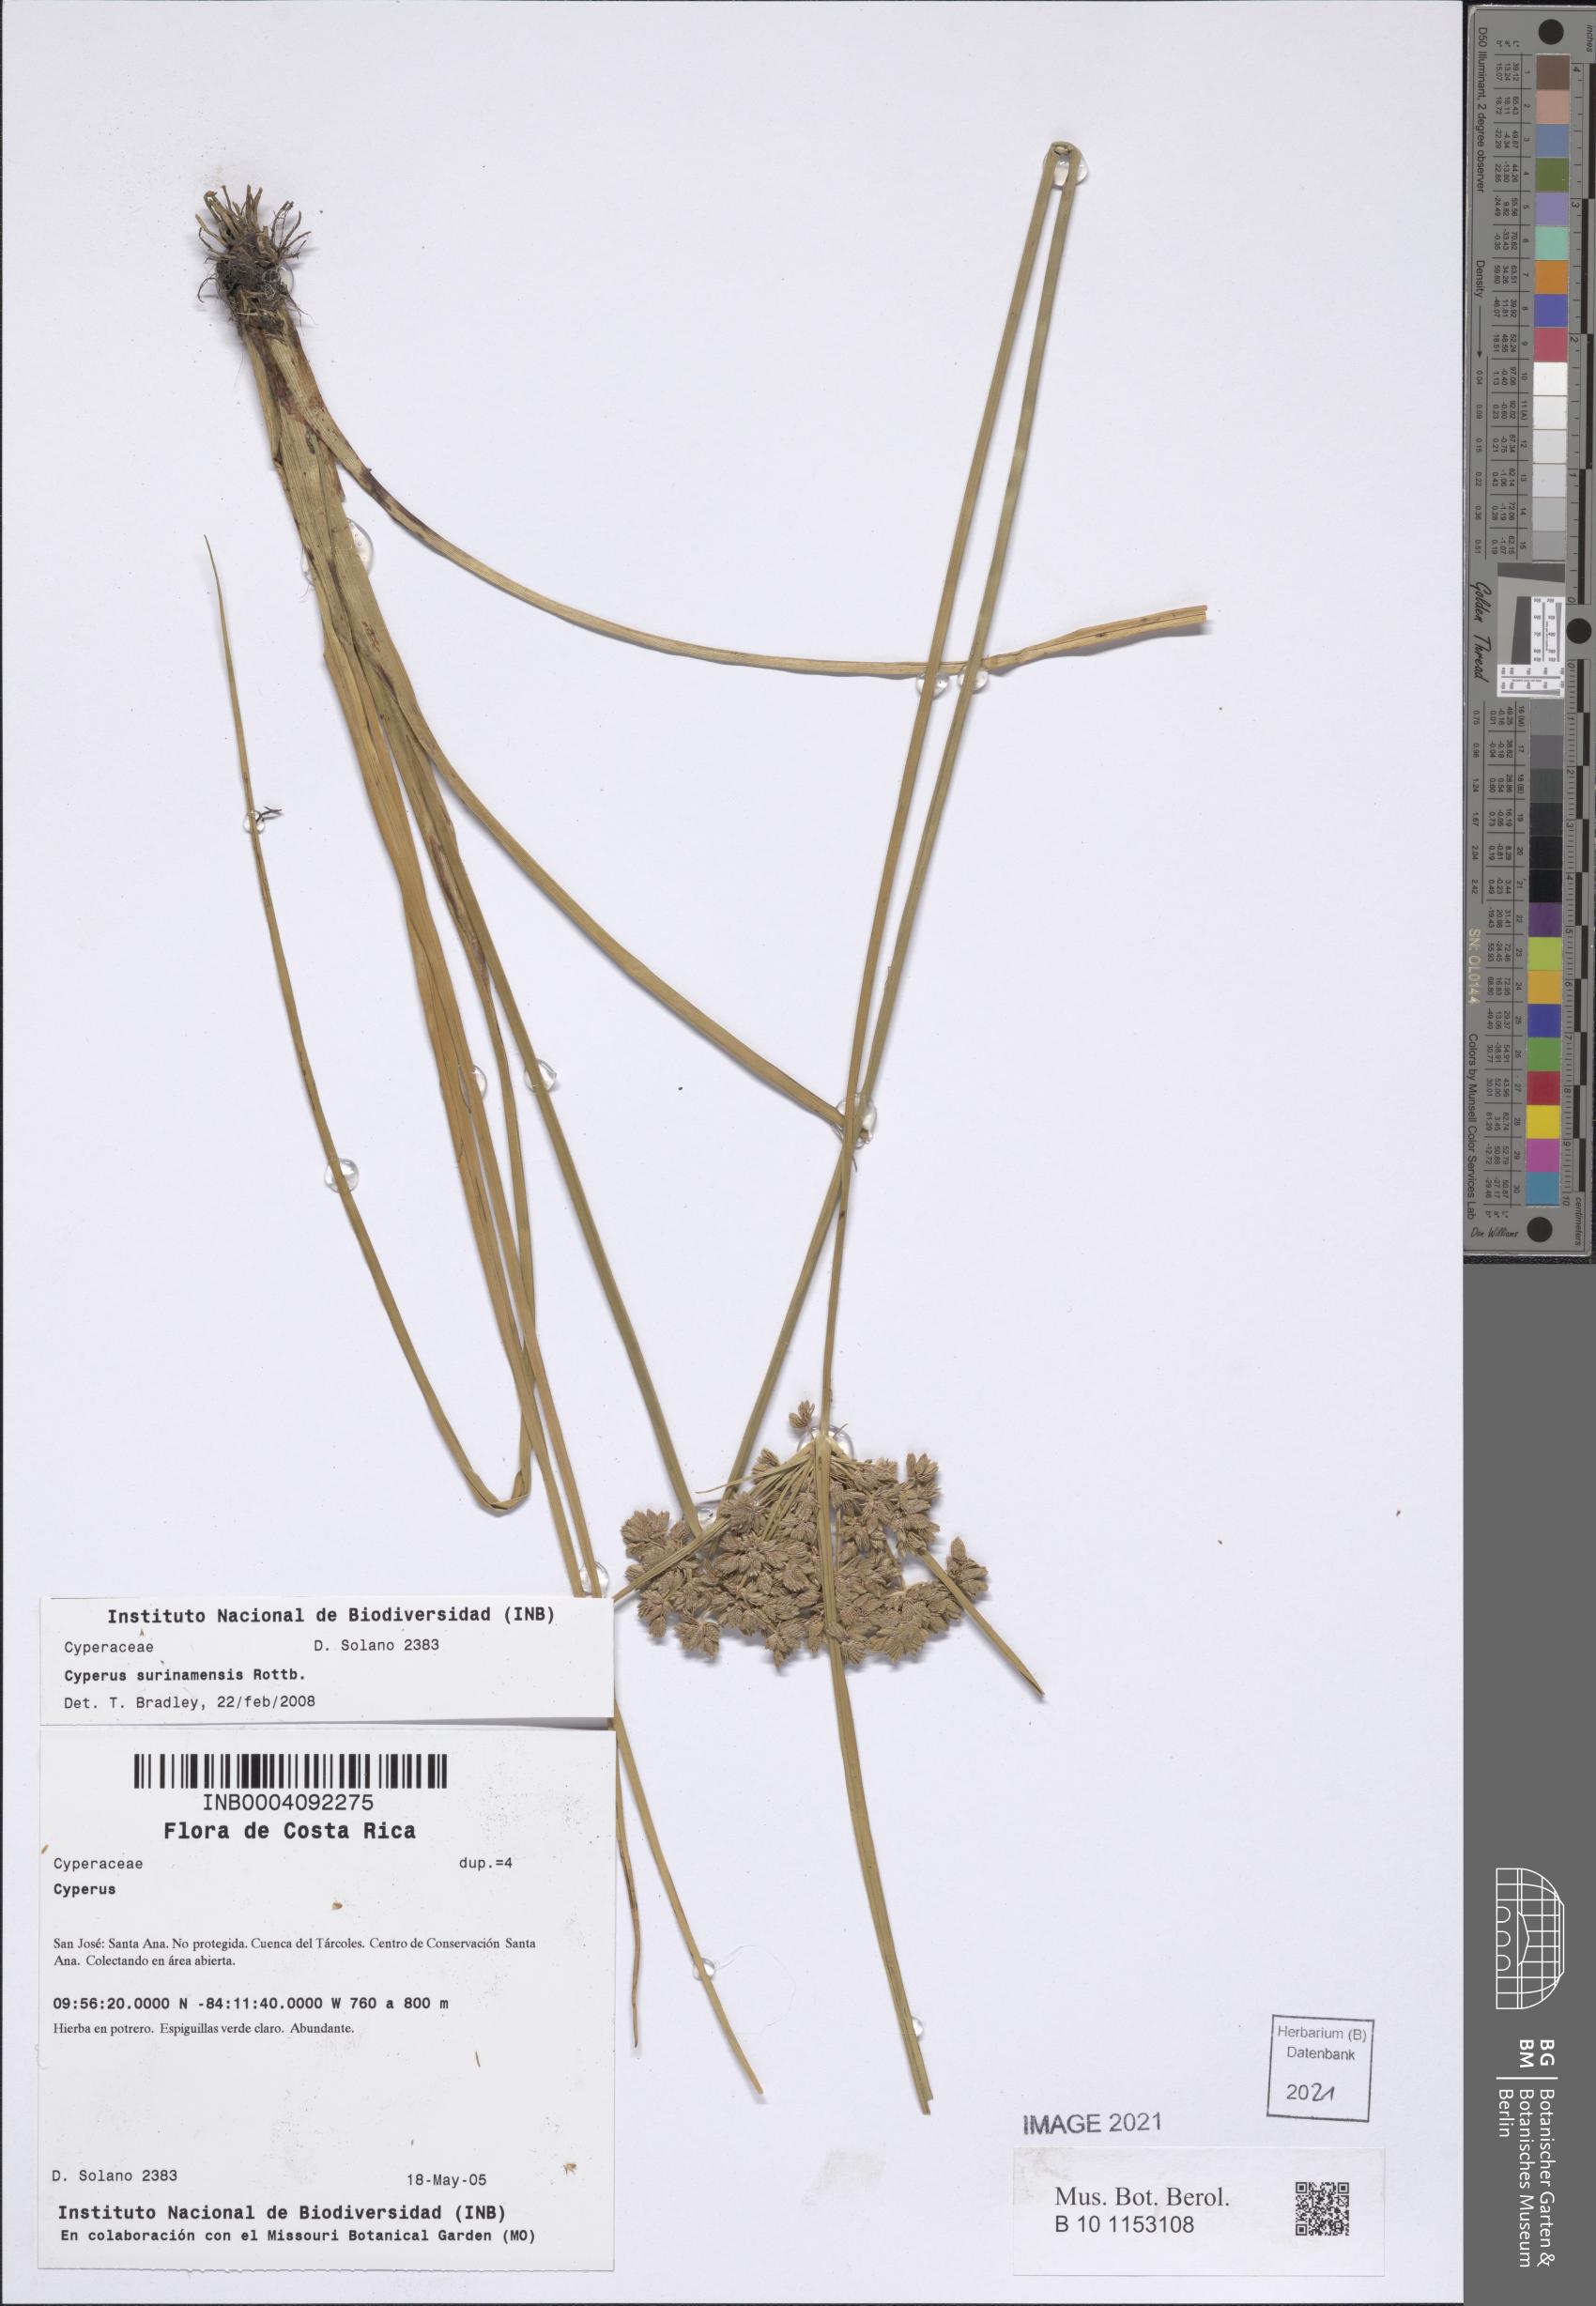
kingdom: Plantae
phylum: Tracheophyta
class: Liliopsida
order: Poales
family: Cyperaceae
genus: Cyperus
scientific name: Cyperus surinamensis
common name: Tropical flat sedge
